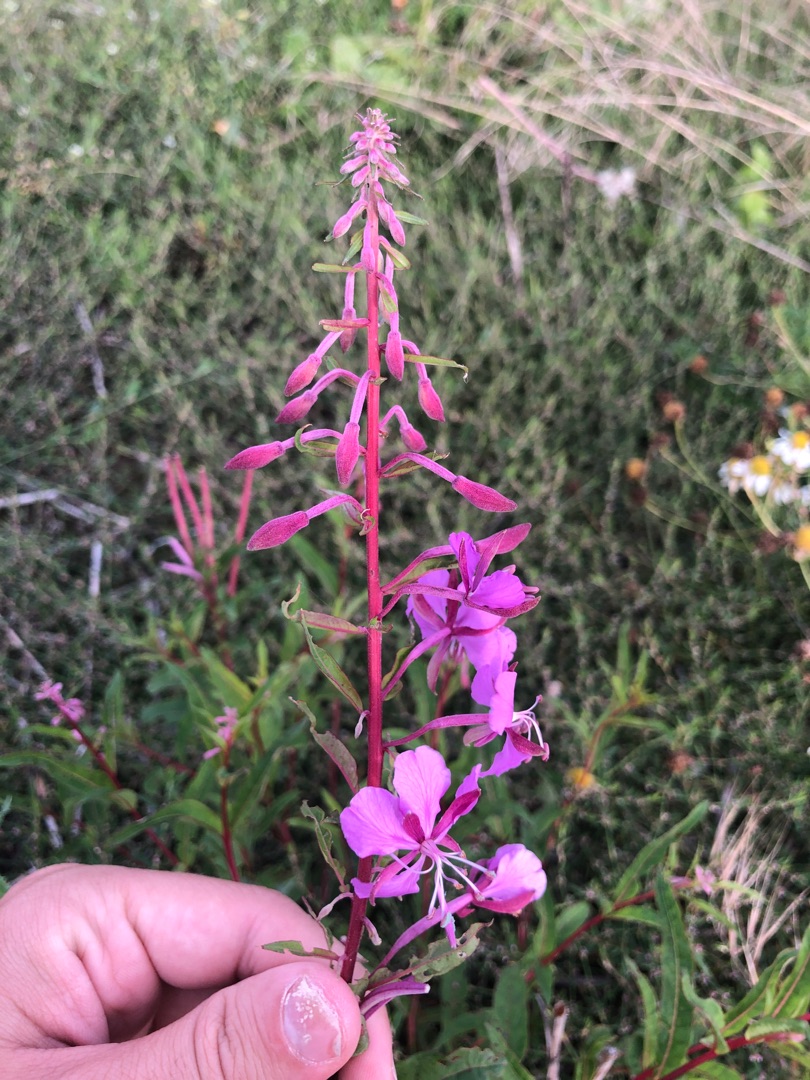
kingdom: Plantae
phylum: Tracheophyta
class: Magnoliopsida
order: Myrtales
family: Onagraceae
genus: Chamaenerion
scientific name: Chamaenerion angustifolium
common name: Gederams
